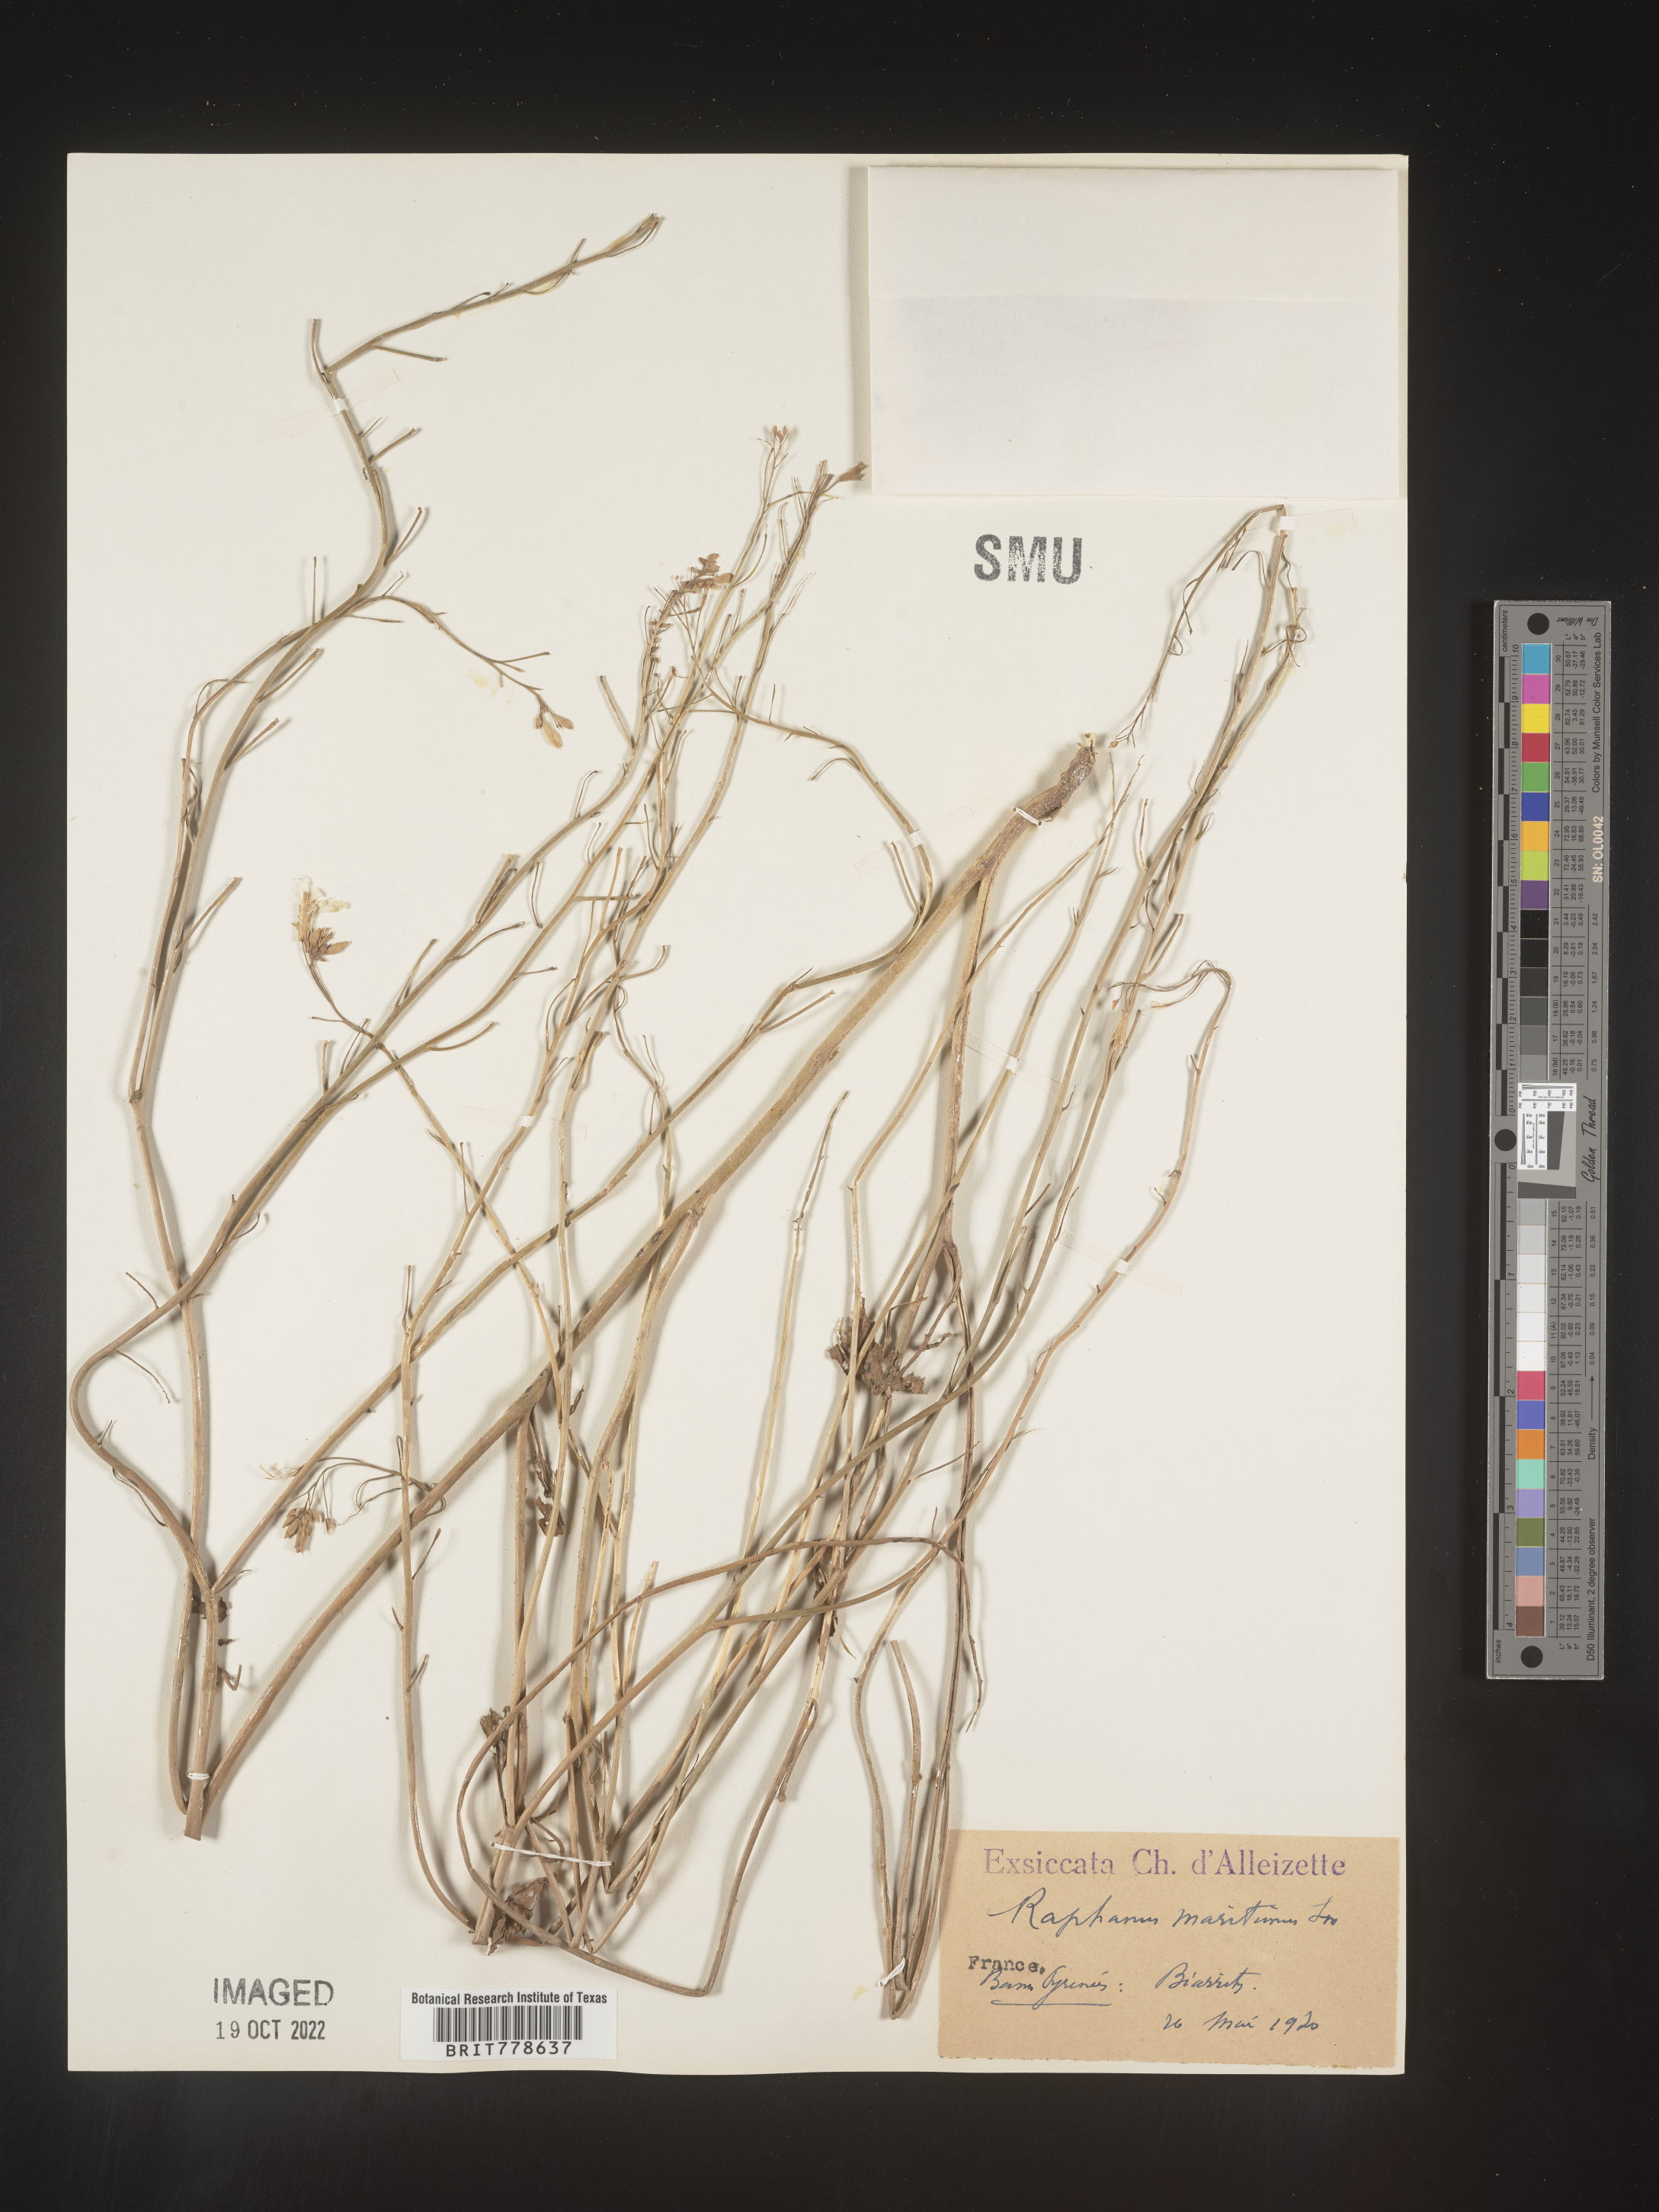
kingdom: Plantae
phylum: Tracheophyta
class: Magnoliopsida
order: Brassicales
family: Brassicaceae
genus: Raphanus
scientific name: Raphanus raphanistrum
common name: Wild radish
